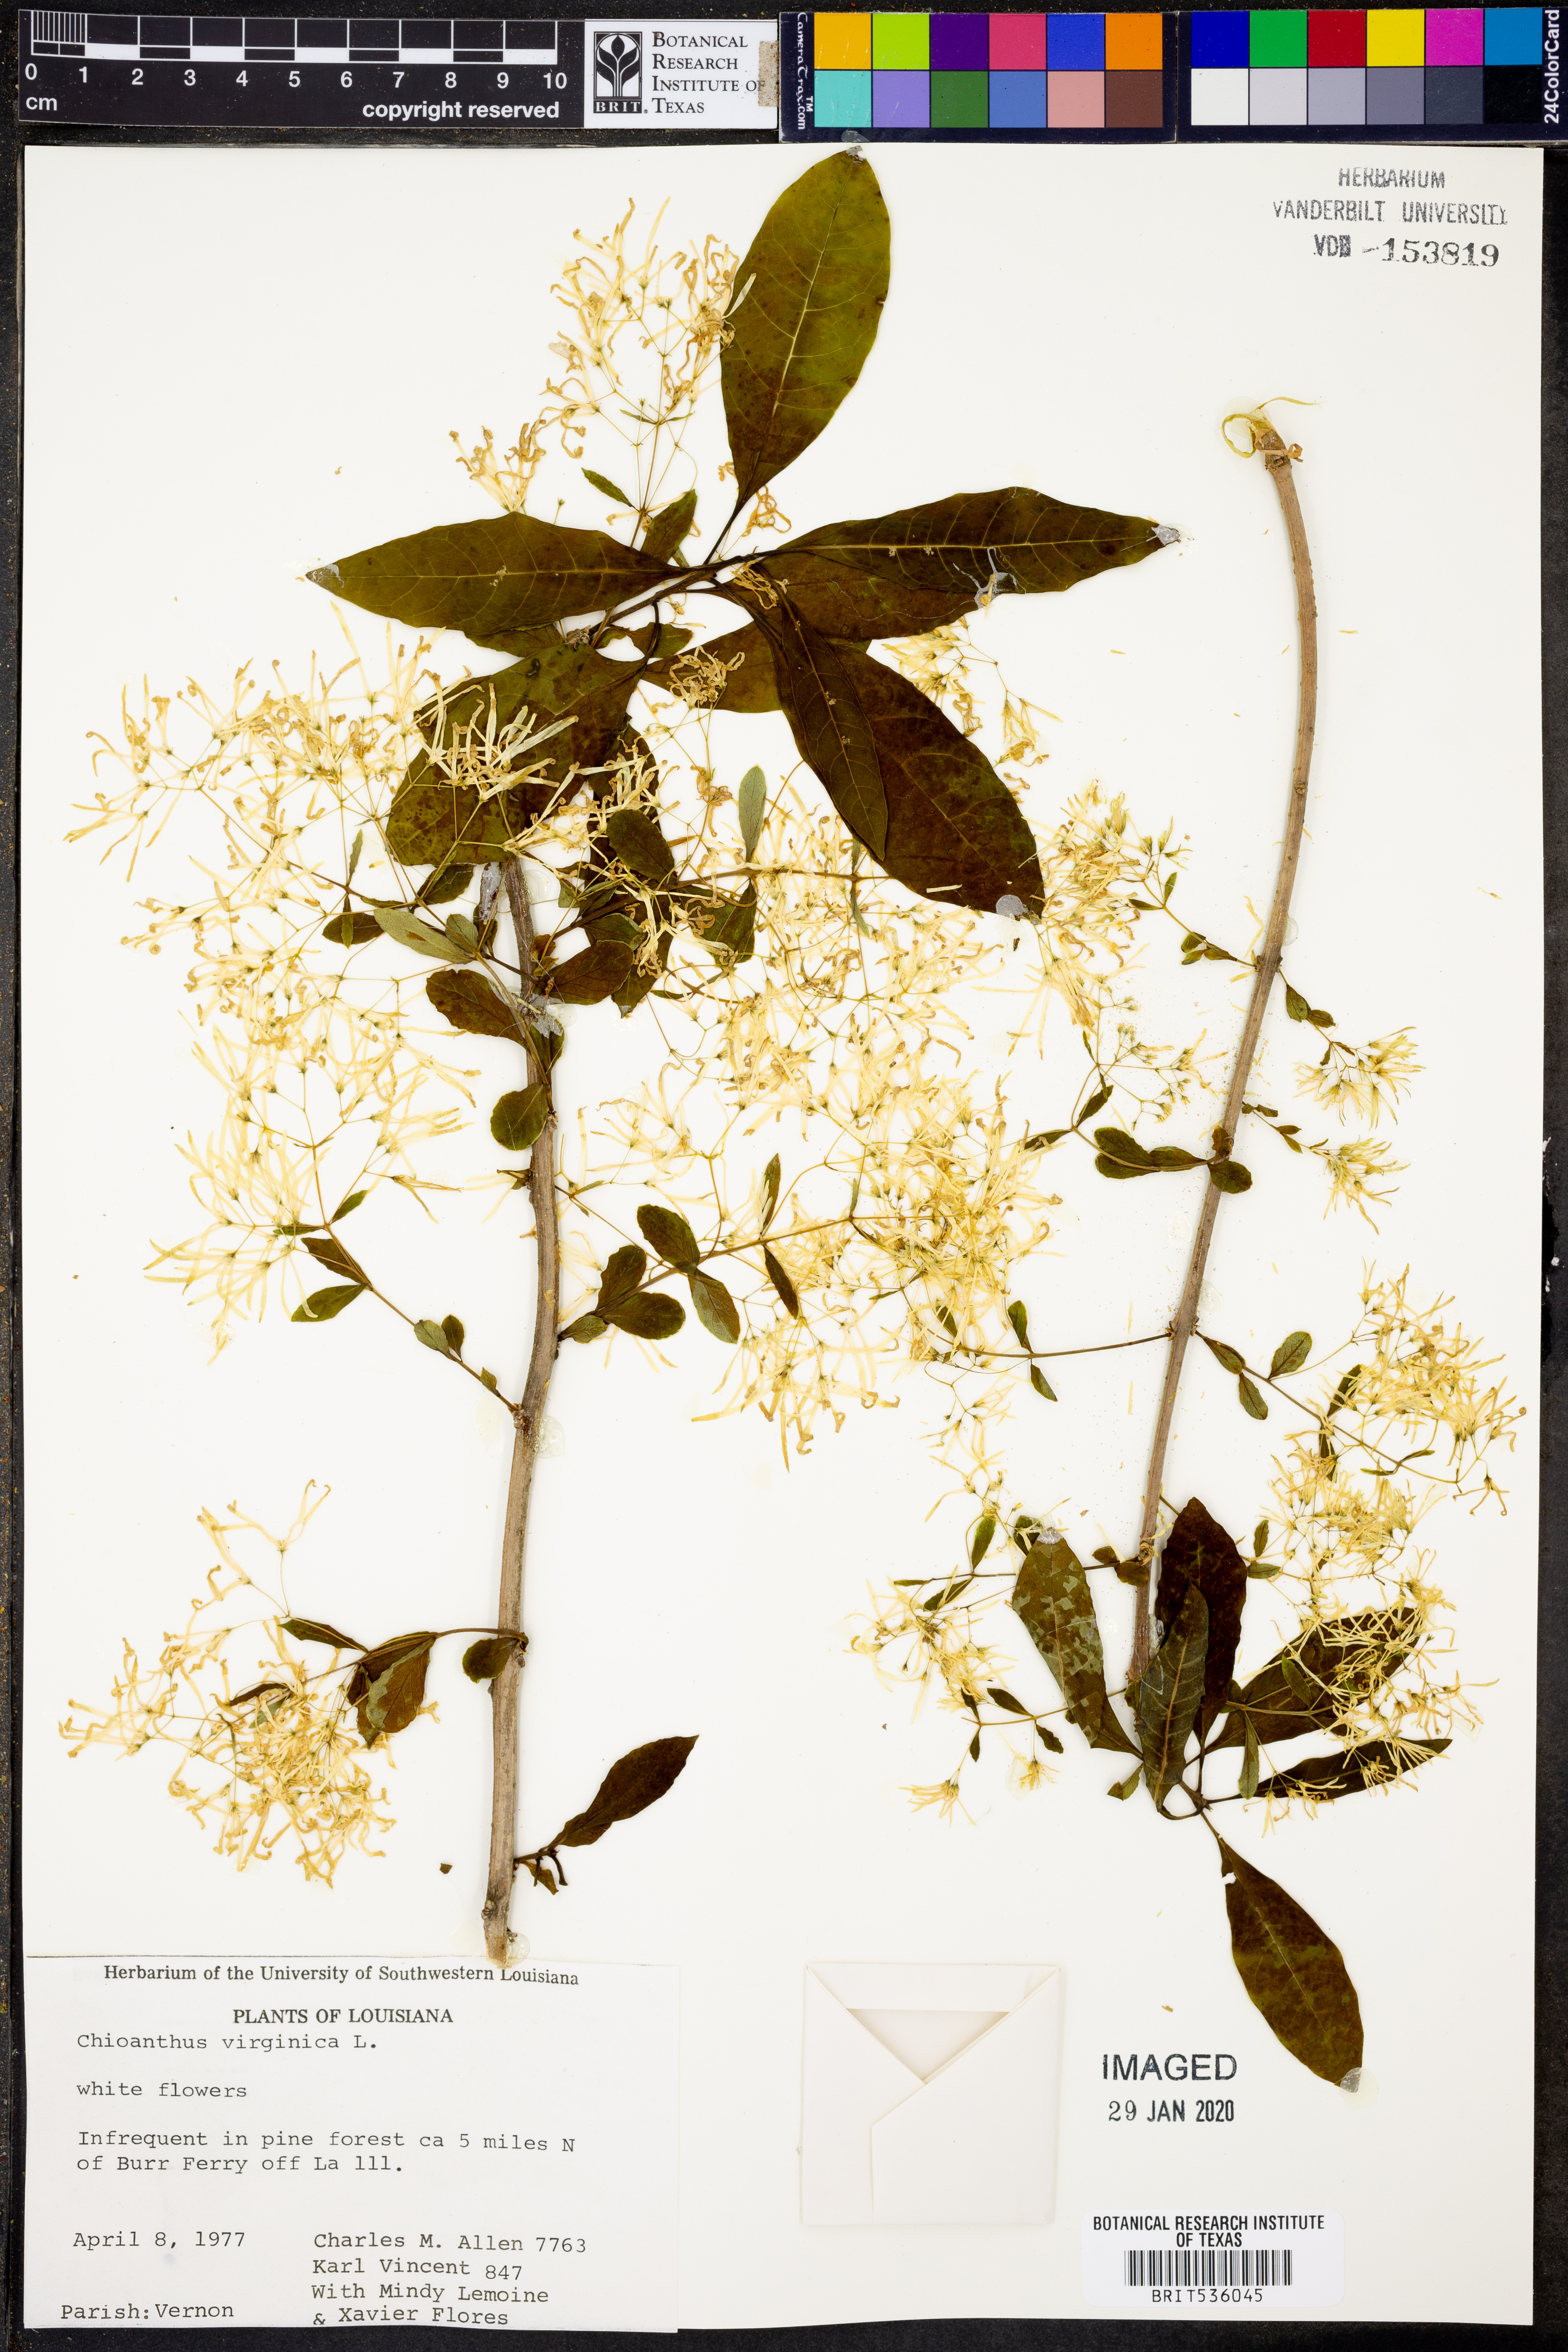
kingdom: Plantae
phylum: Tracheophyta
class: Magnoliopsida
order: Lamiales
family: Oleaceae
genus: Chionanthus
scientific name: Chionanthus virginicus
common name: American fringetree
